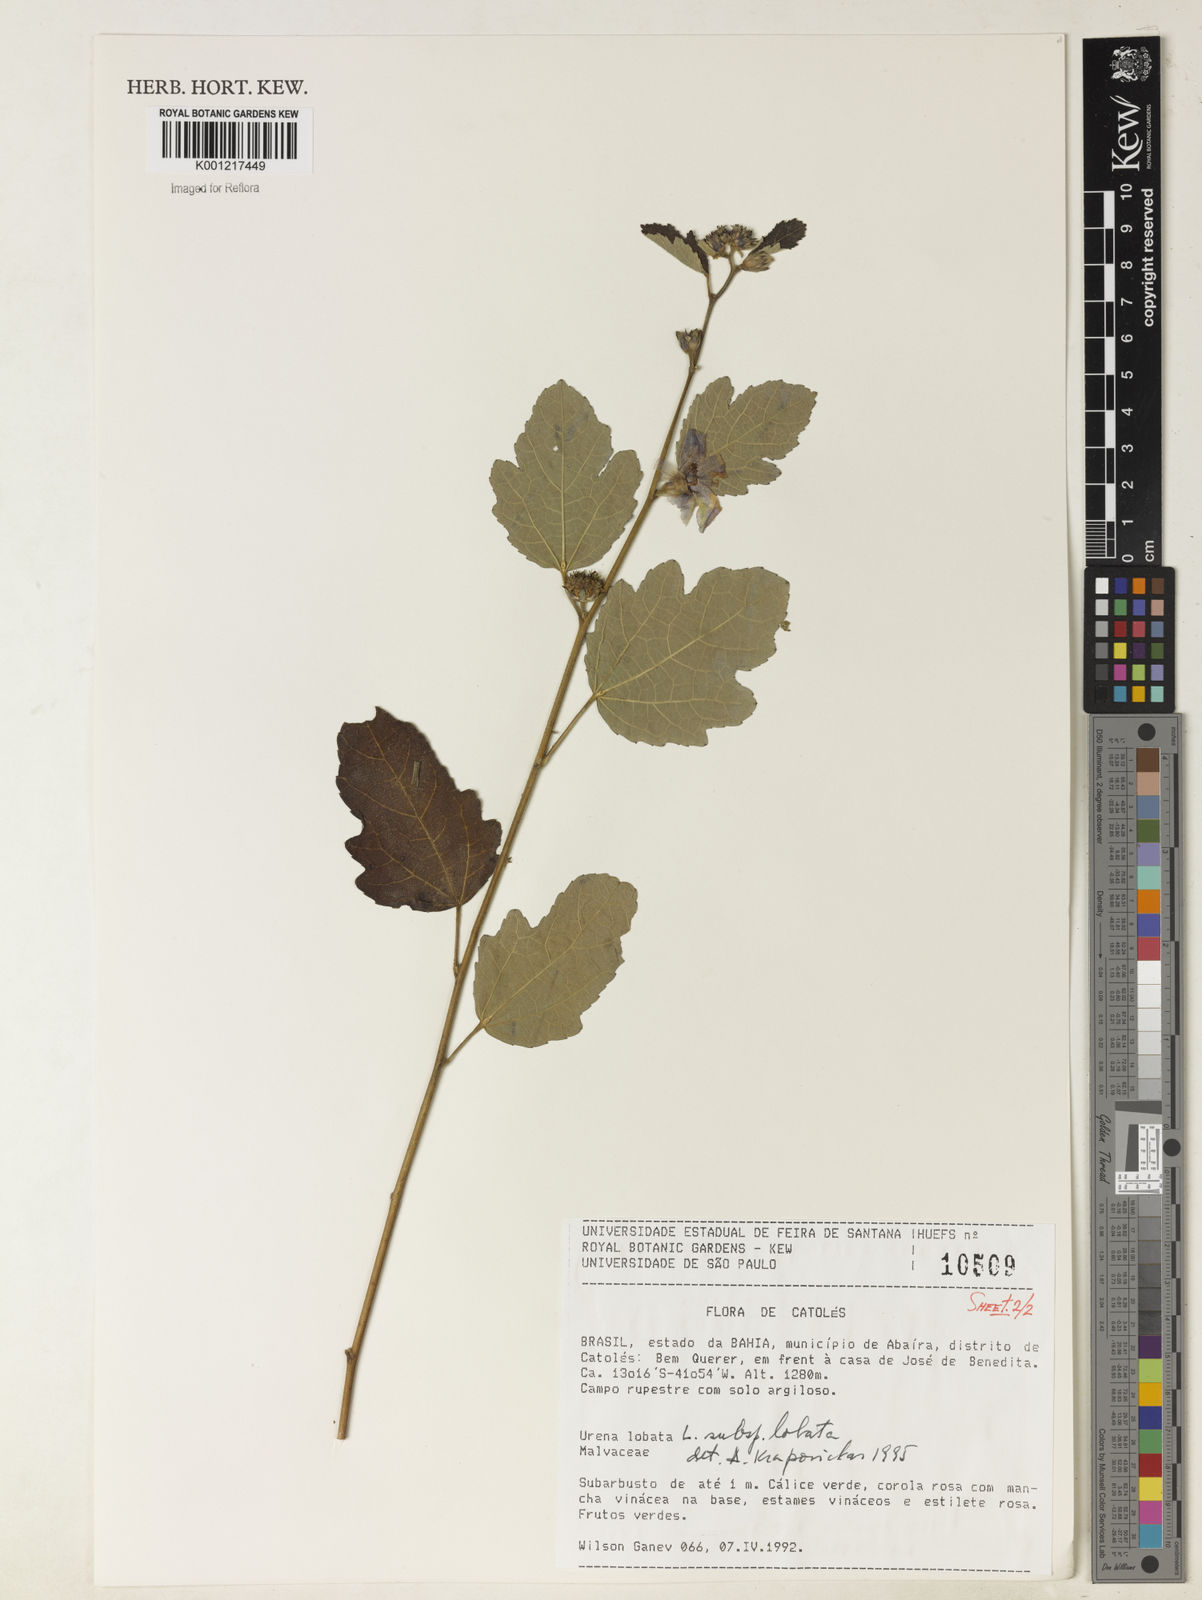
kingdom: Plantae
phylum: Tracheophyta
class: Magnoliopsida
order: Malvales
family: Malvaceae
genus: Urena
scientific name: Urena lobata
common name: Caesarweed
